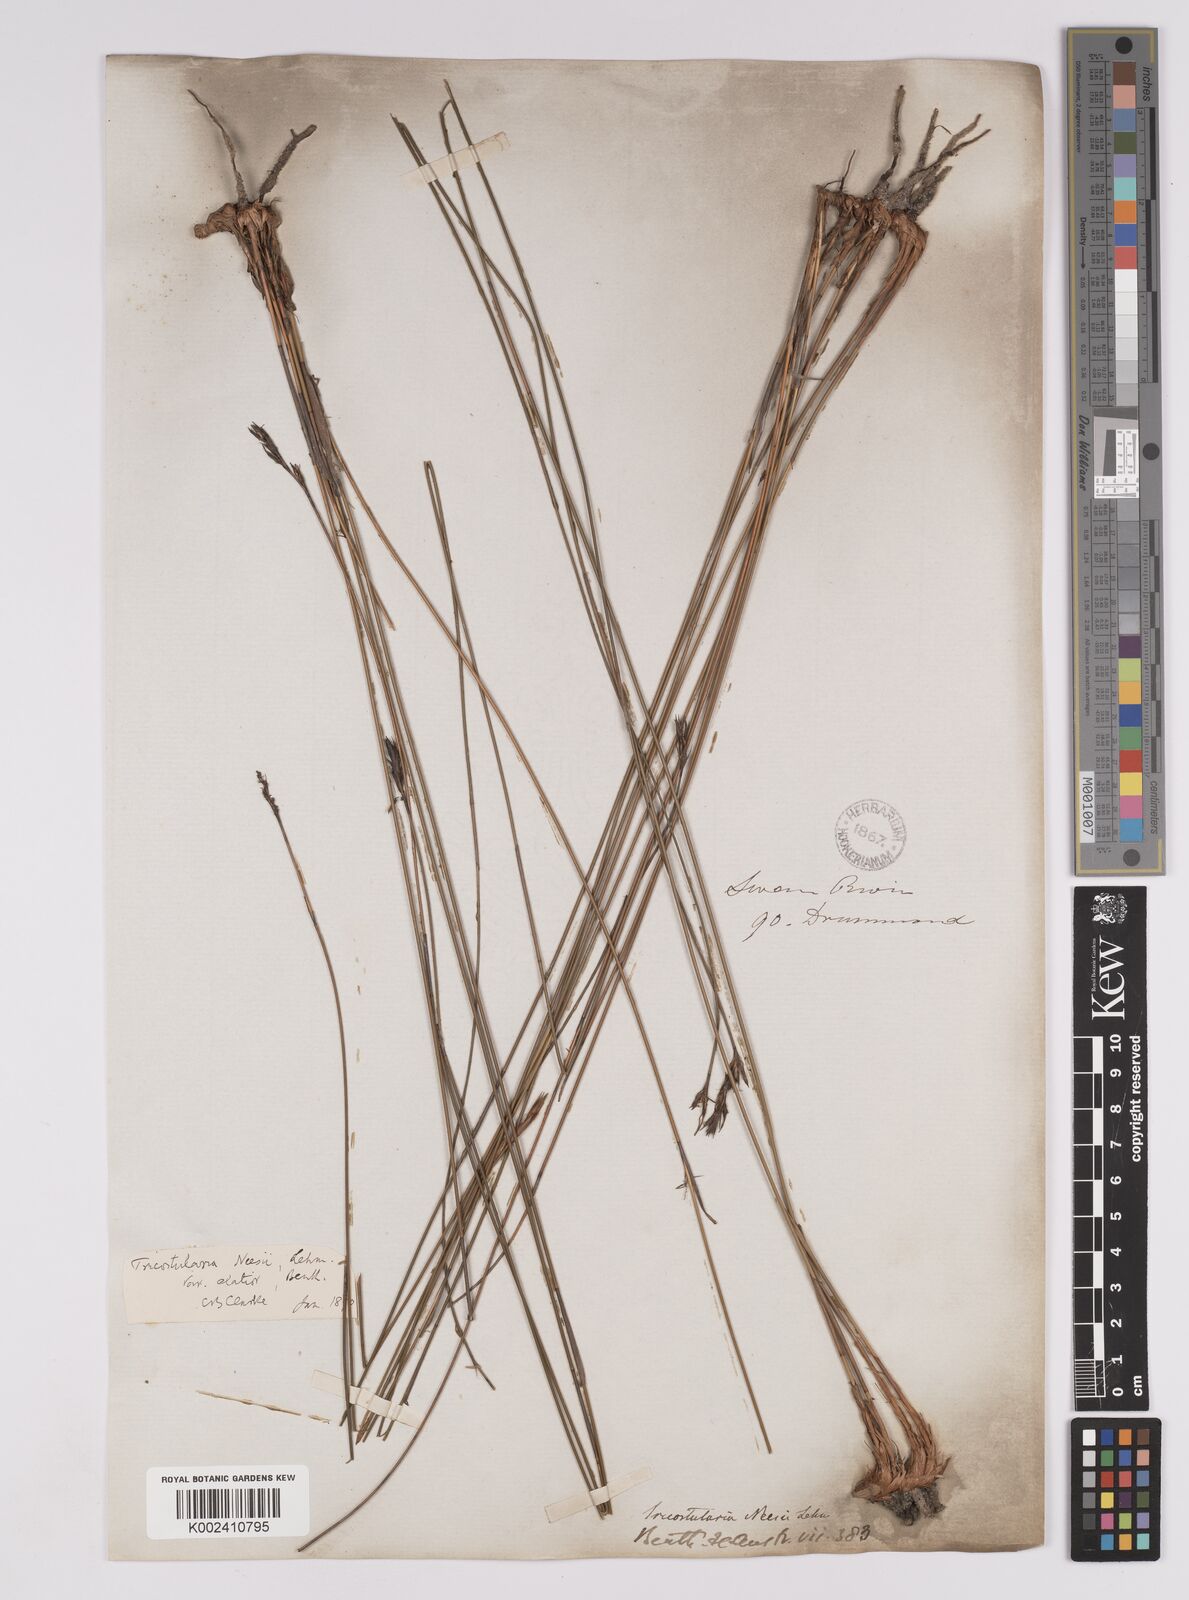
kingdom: Plantae
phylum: Tracheophyta
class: Liliopsida
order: Poales
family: Cyperaceae
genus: Tricostularia
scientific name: Tricostularia neesii
